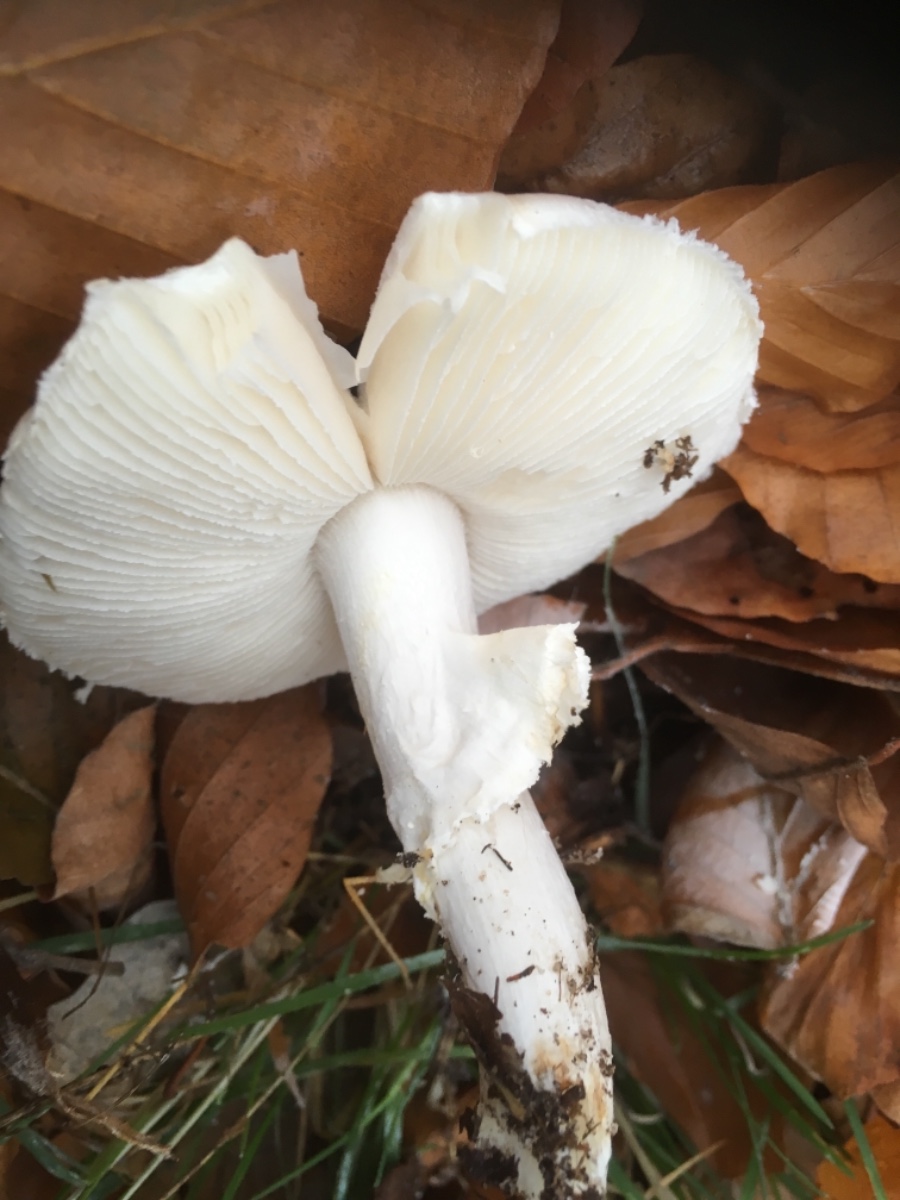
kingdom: Fungi
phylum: Basidiomycota
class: Agaricomycetes
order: Agaricales
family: Amanitaceae
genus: Amanita
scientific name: Amanita citrina
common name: False death-cap
